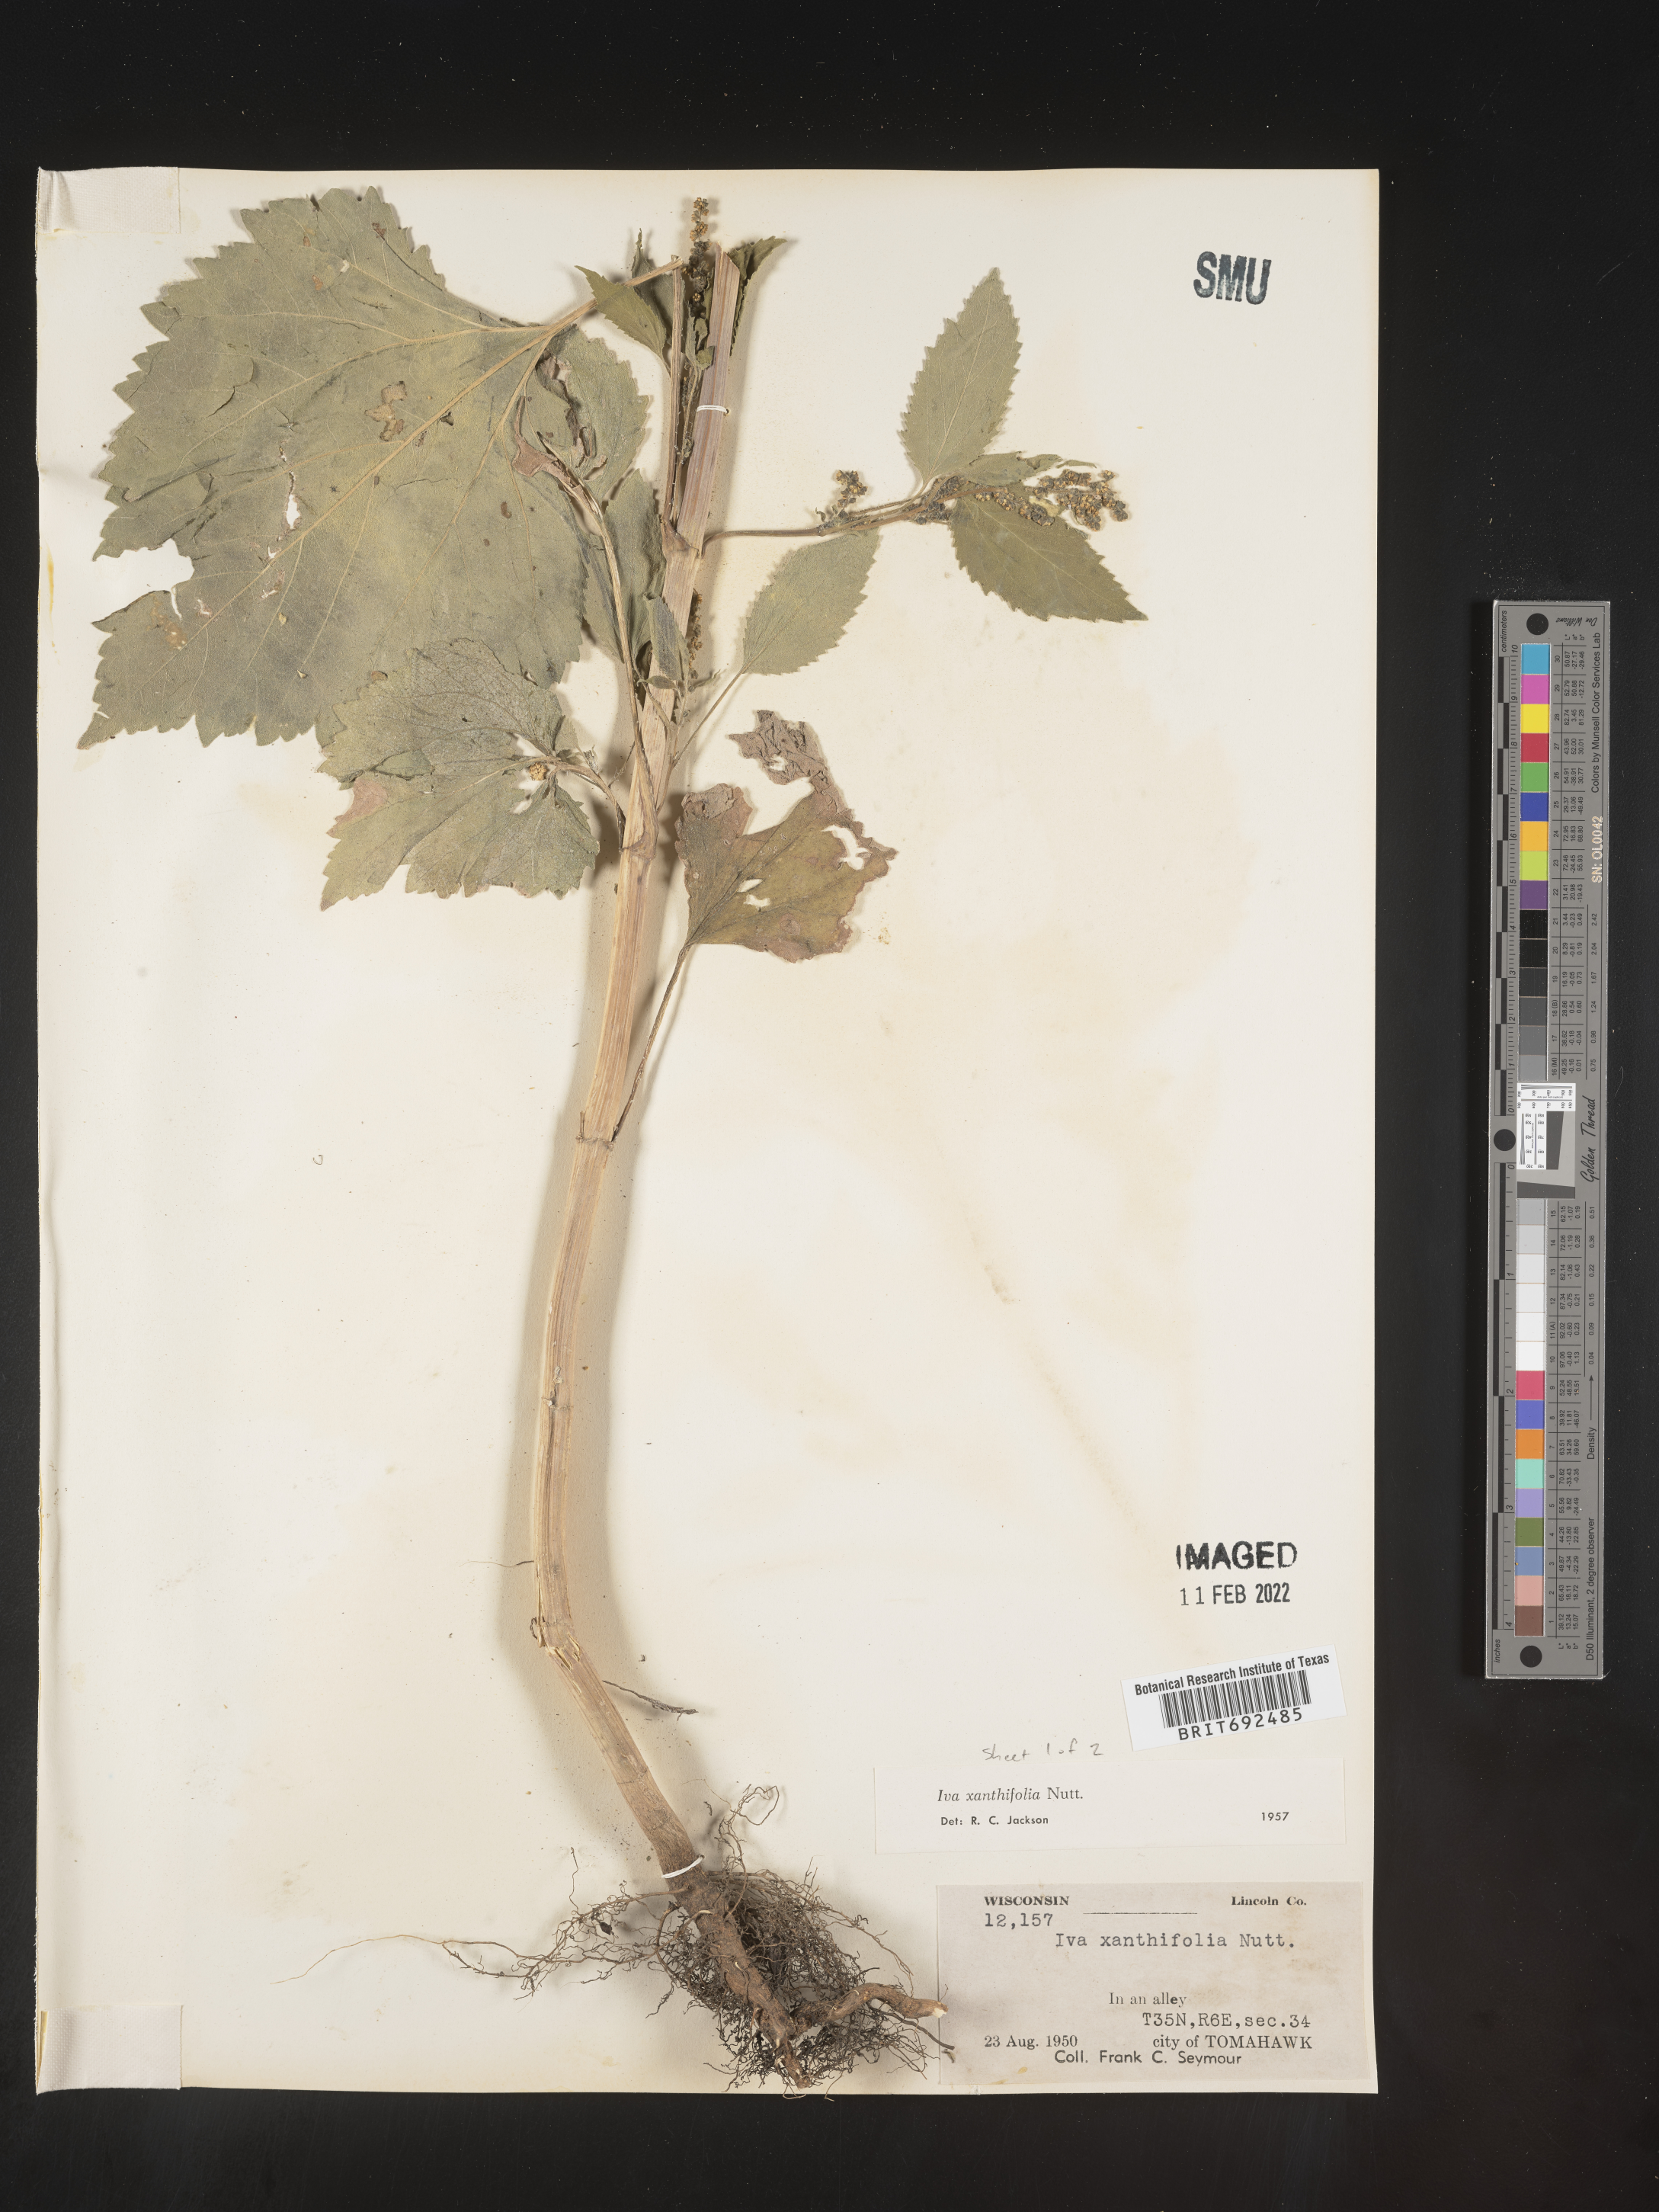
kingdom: Plantae
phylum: Tracheophyta
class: Magnoliopsida
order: Asterales
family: Asteraceae
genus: Cyclachaena
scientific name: Cyclachaena
